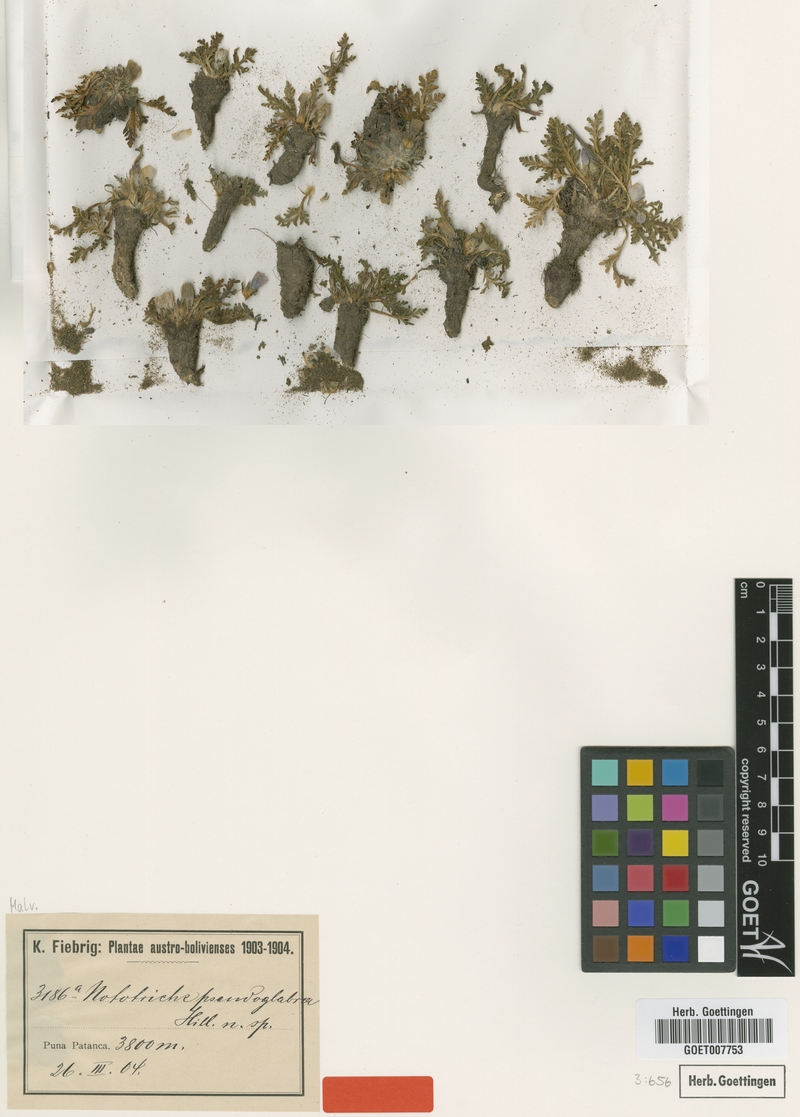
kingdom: Plantae
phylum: Tracheophyta
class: Magnoliopsida
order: Malvales
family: Malvaceae
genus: Nototriche
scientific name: Nototriche anthemidifolia
